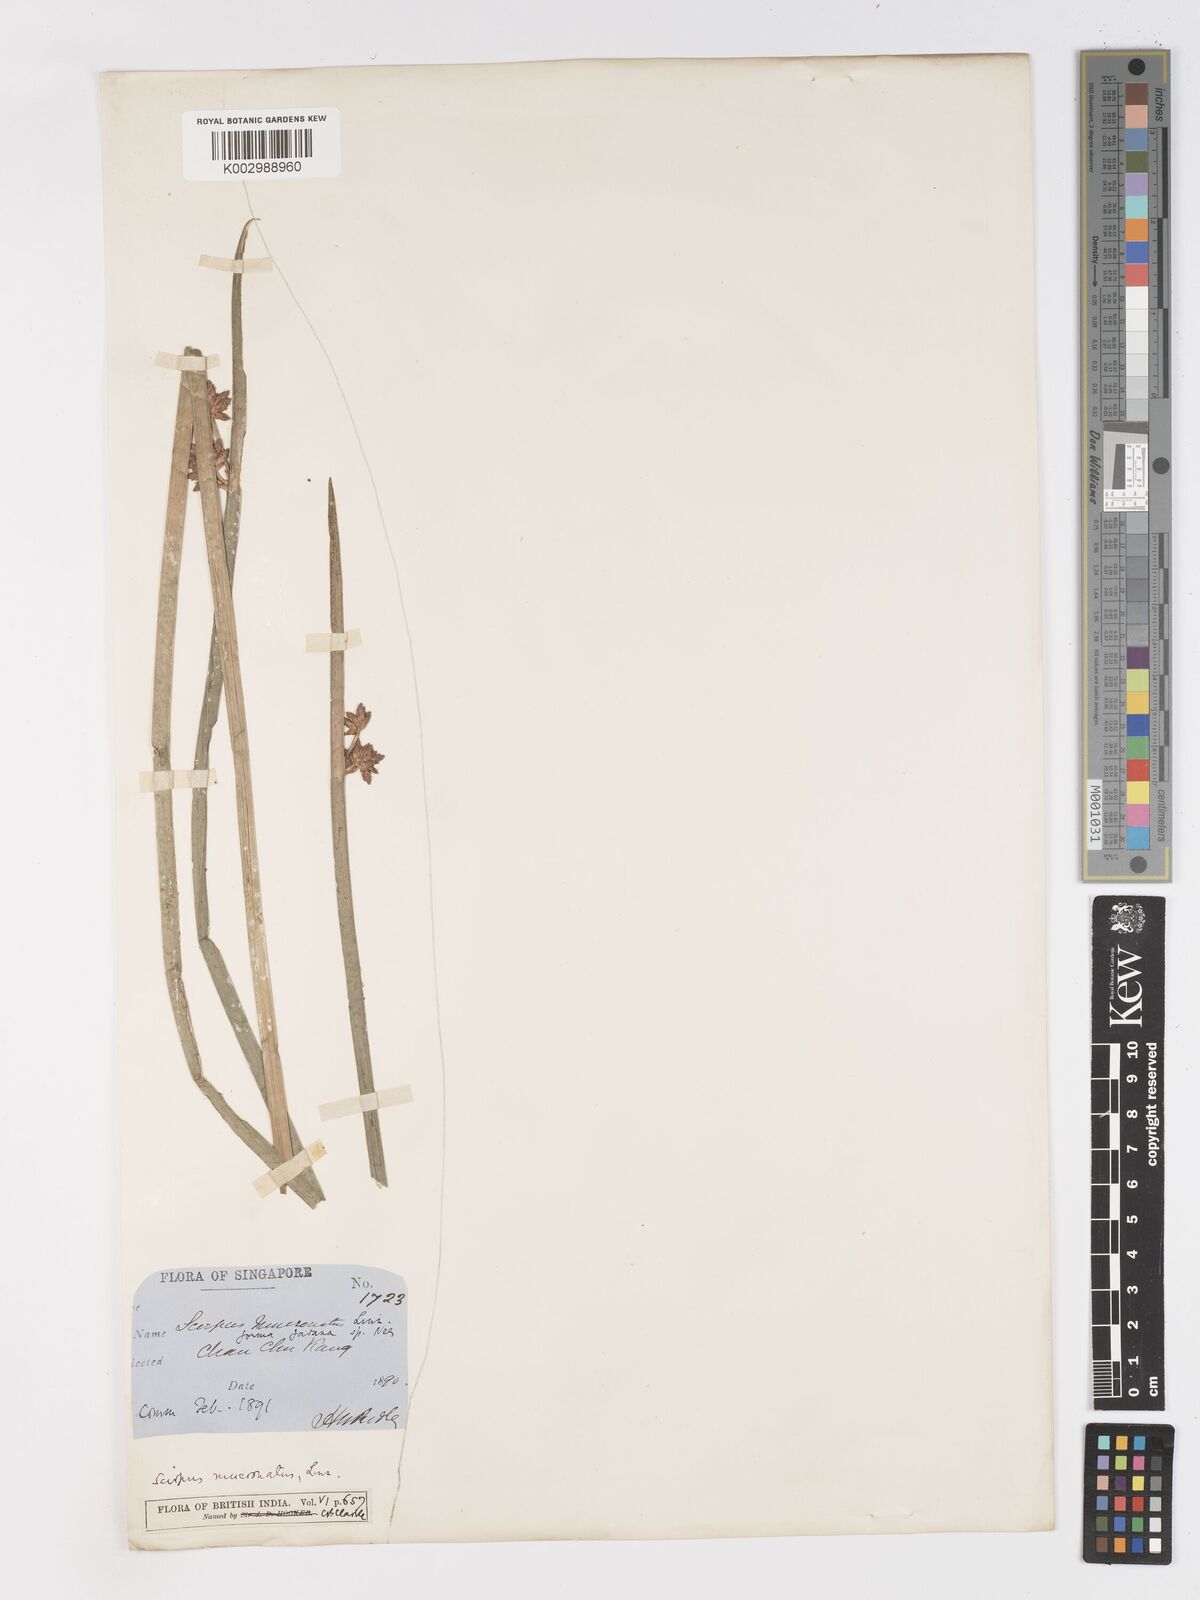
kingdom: Plantae
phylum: Tracheophyta
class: Liliopsida
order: Poales
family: Cyperaceae
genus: Schoenoplectiella
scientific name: Schoenoplectiella mucronata
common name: Bog bulrush
